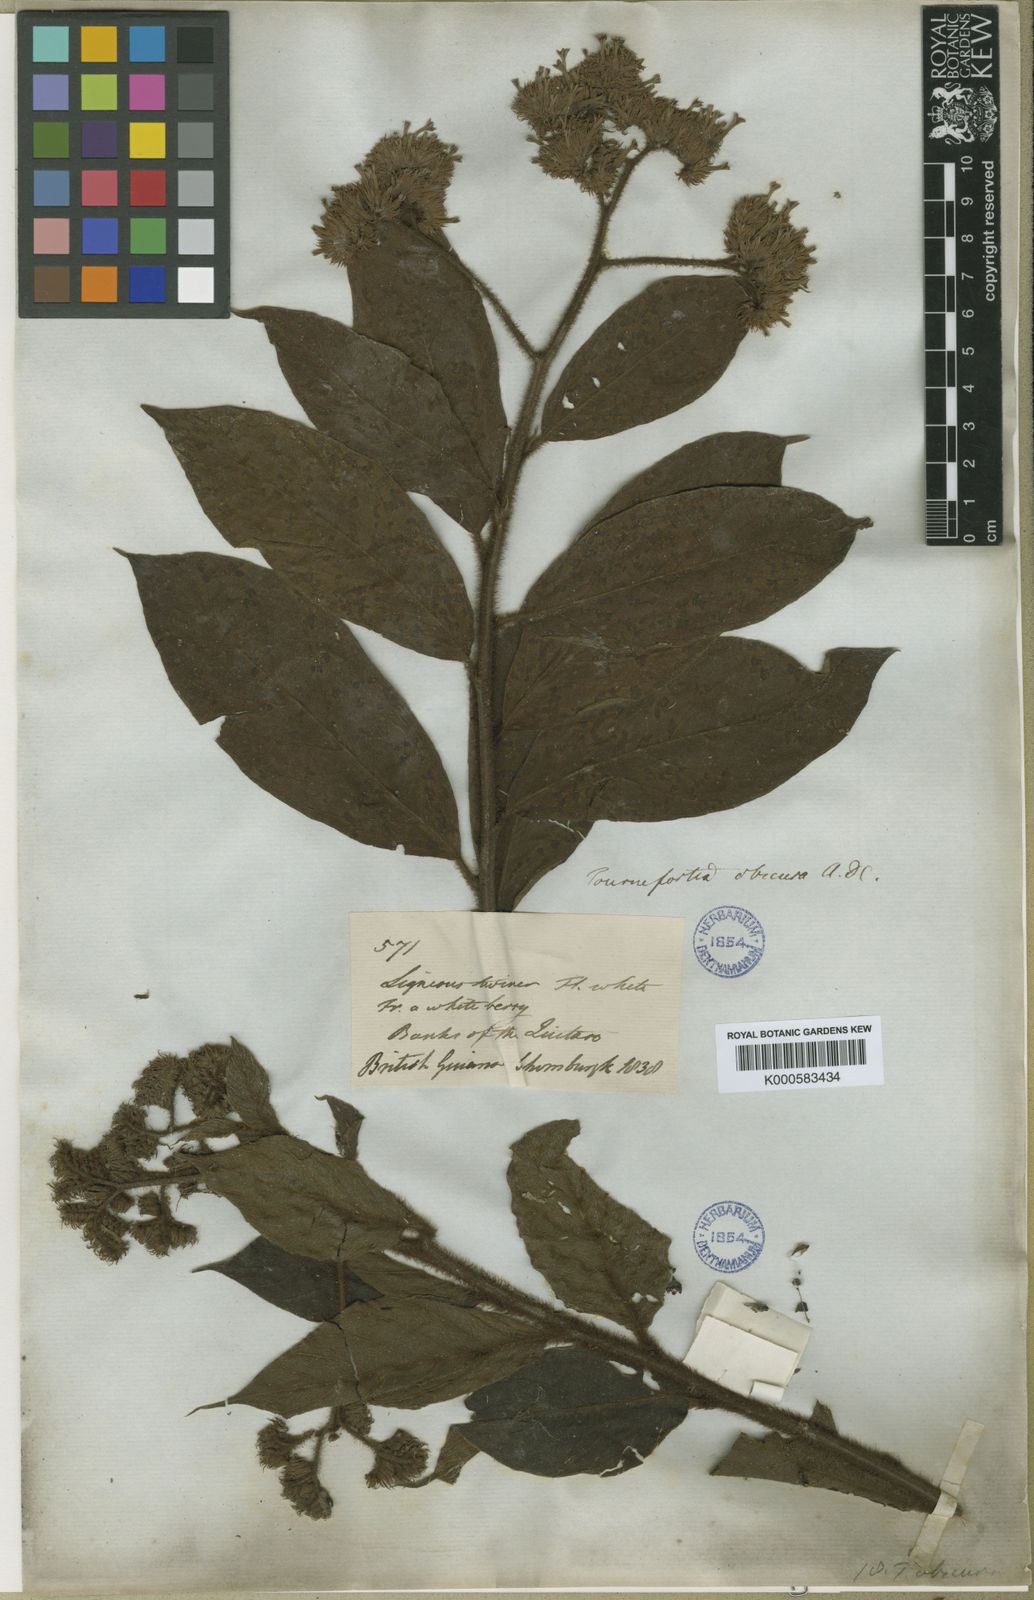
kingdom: Plantae
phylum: Tracheophyta
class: Magnoliopsida
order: Boraginales
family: Heliotropiaceae
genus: Heliotropium
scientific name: Heliotropium cuspidatum
